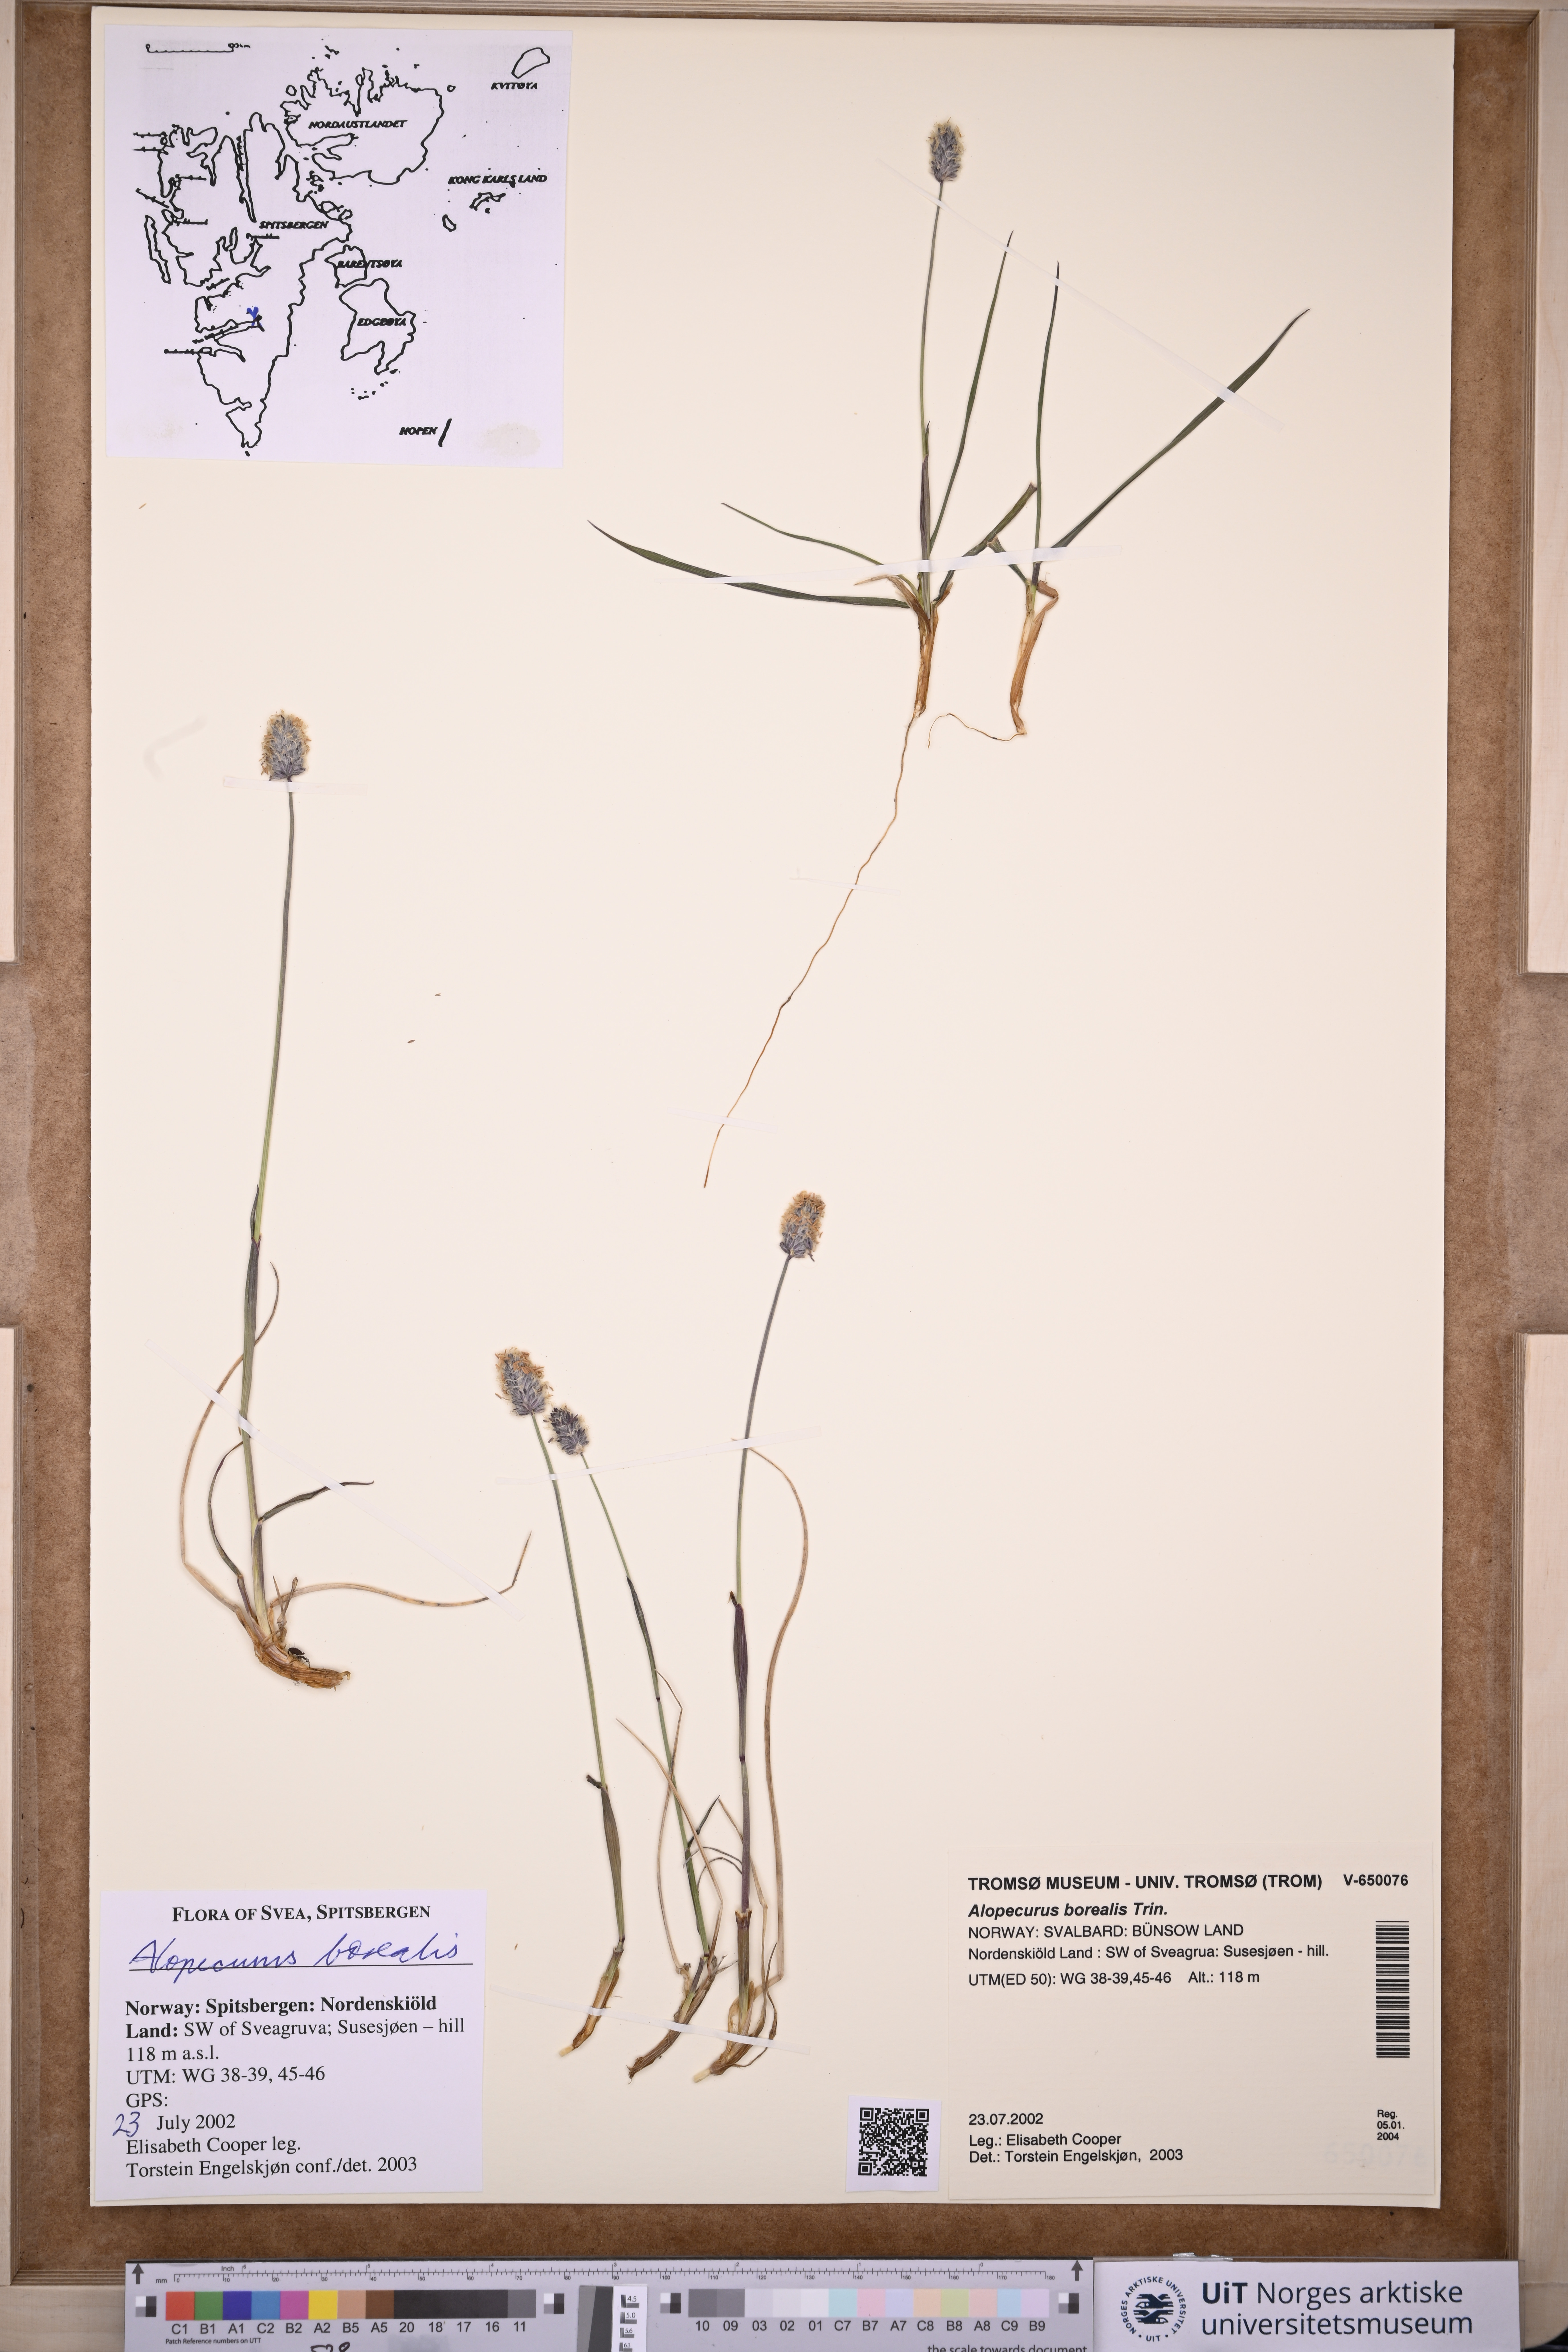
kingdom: Plantae
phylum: Tracheophyta
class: Liliopsida
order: Poales
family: Poaceae
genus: Alopecurus
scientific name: Alopecurus magellanicus
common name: Alpine foxtail
